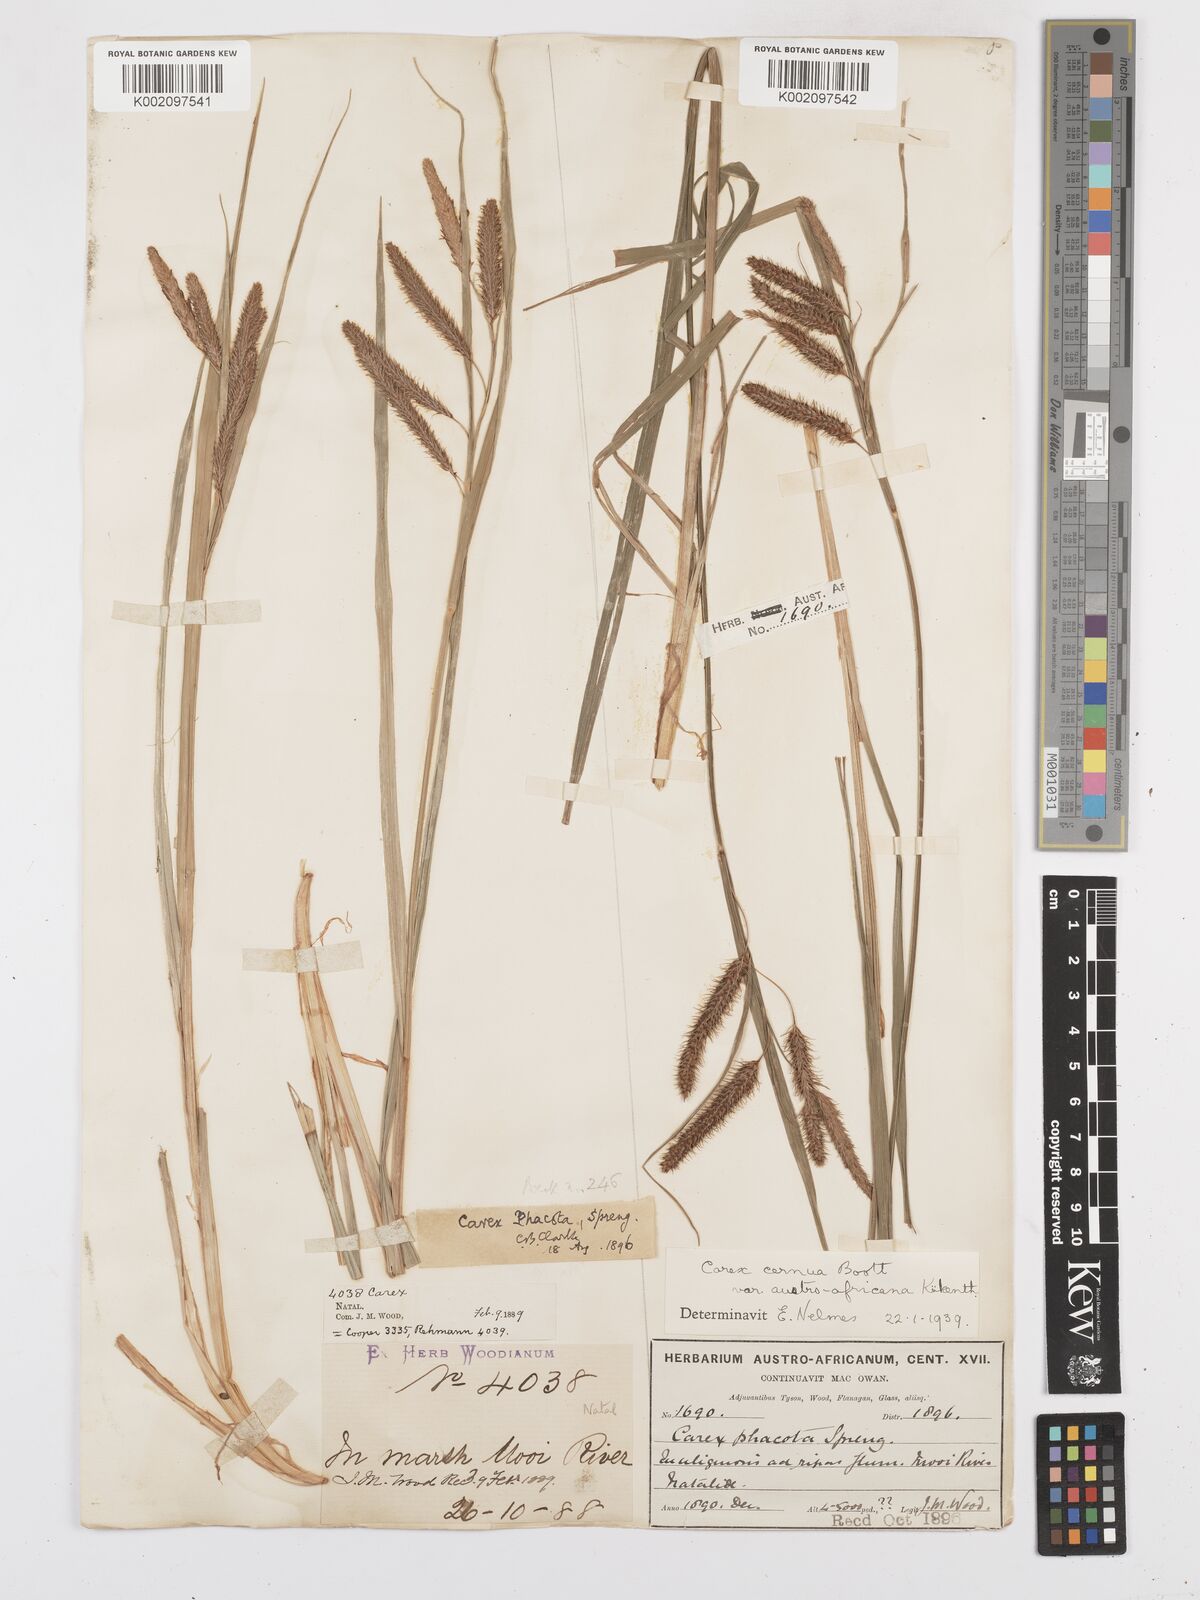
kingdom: Plantae
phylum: Tracheophyta
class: Liliopsida
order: Poales
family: Cyperaceae
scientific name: Cyperaceae
